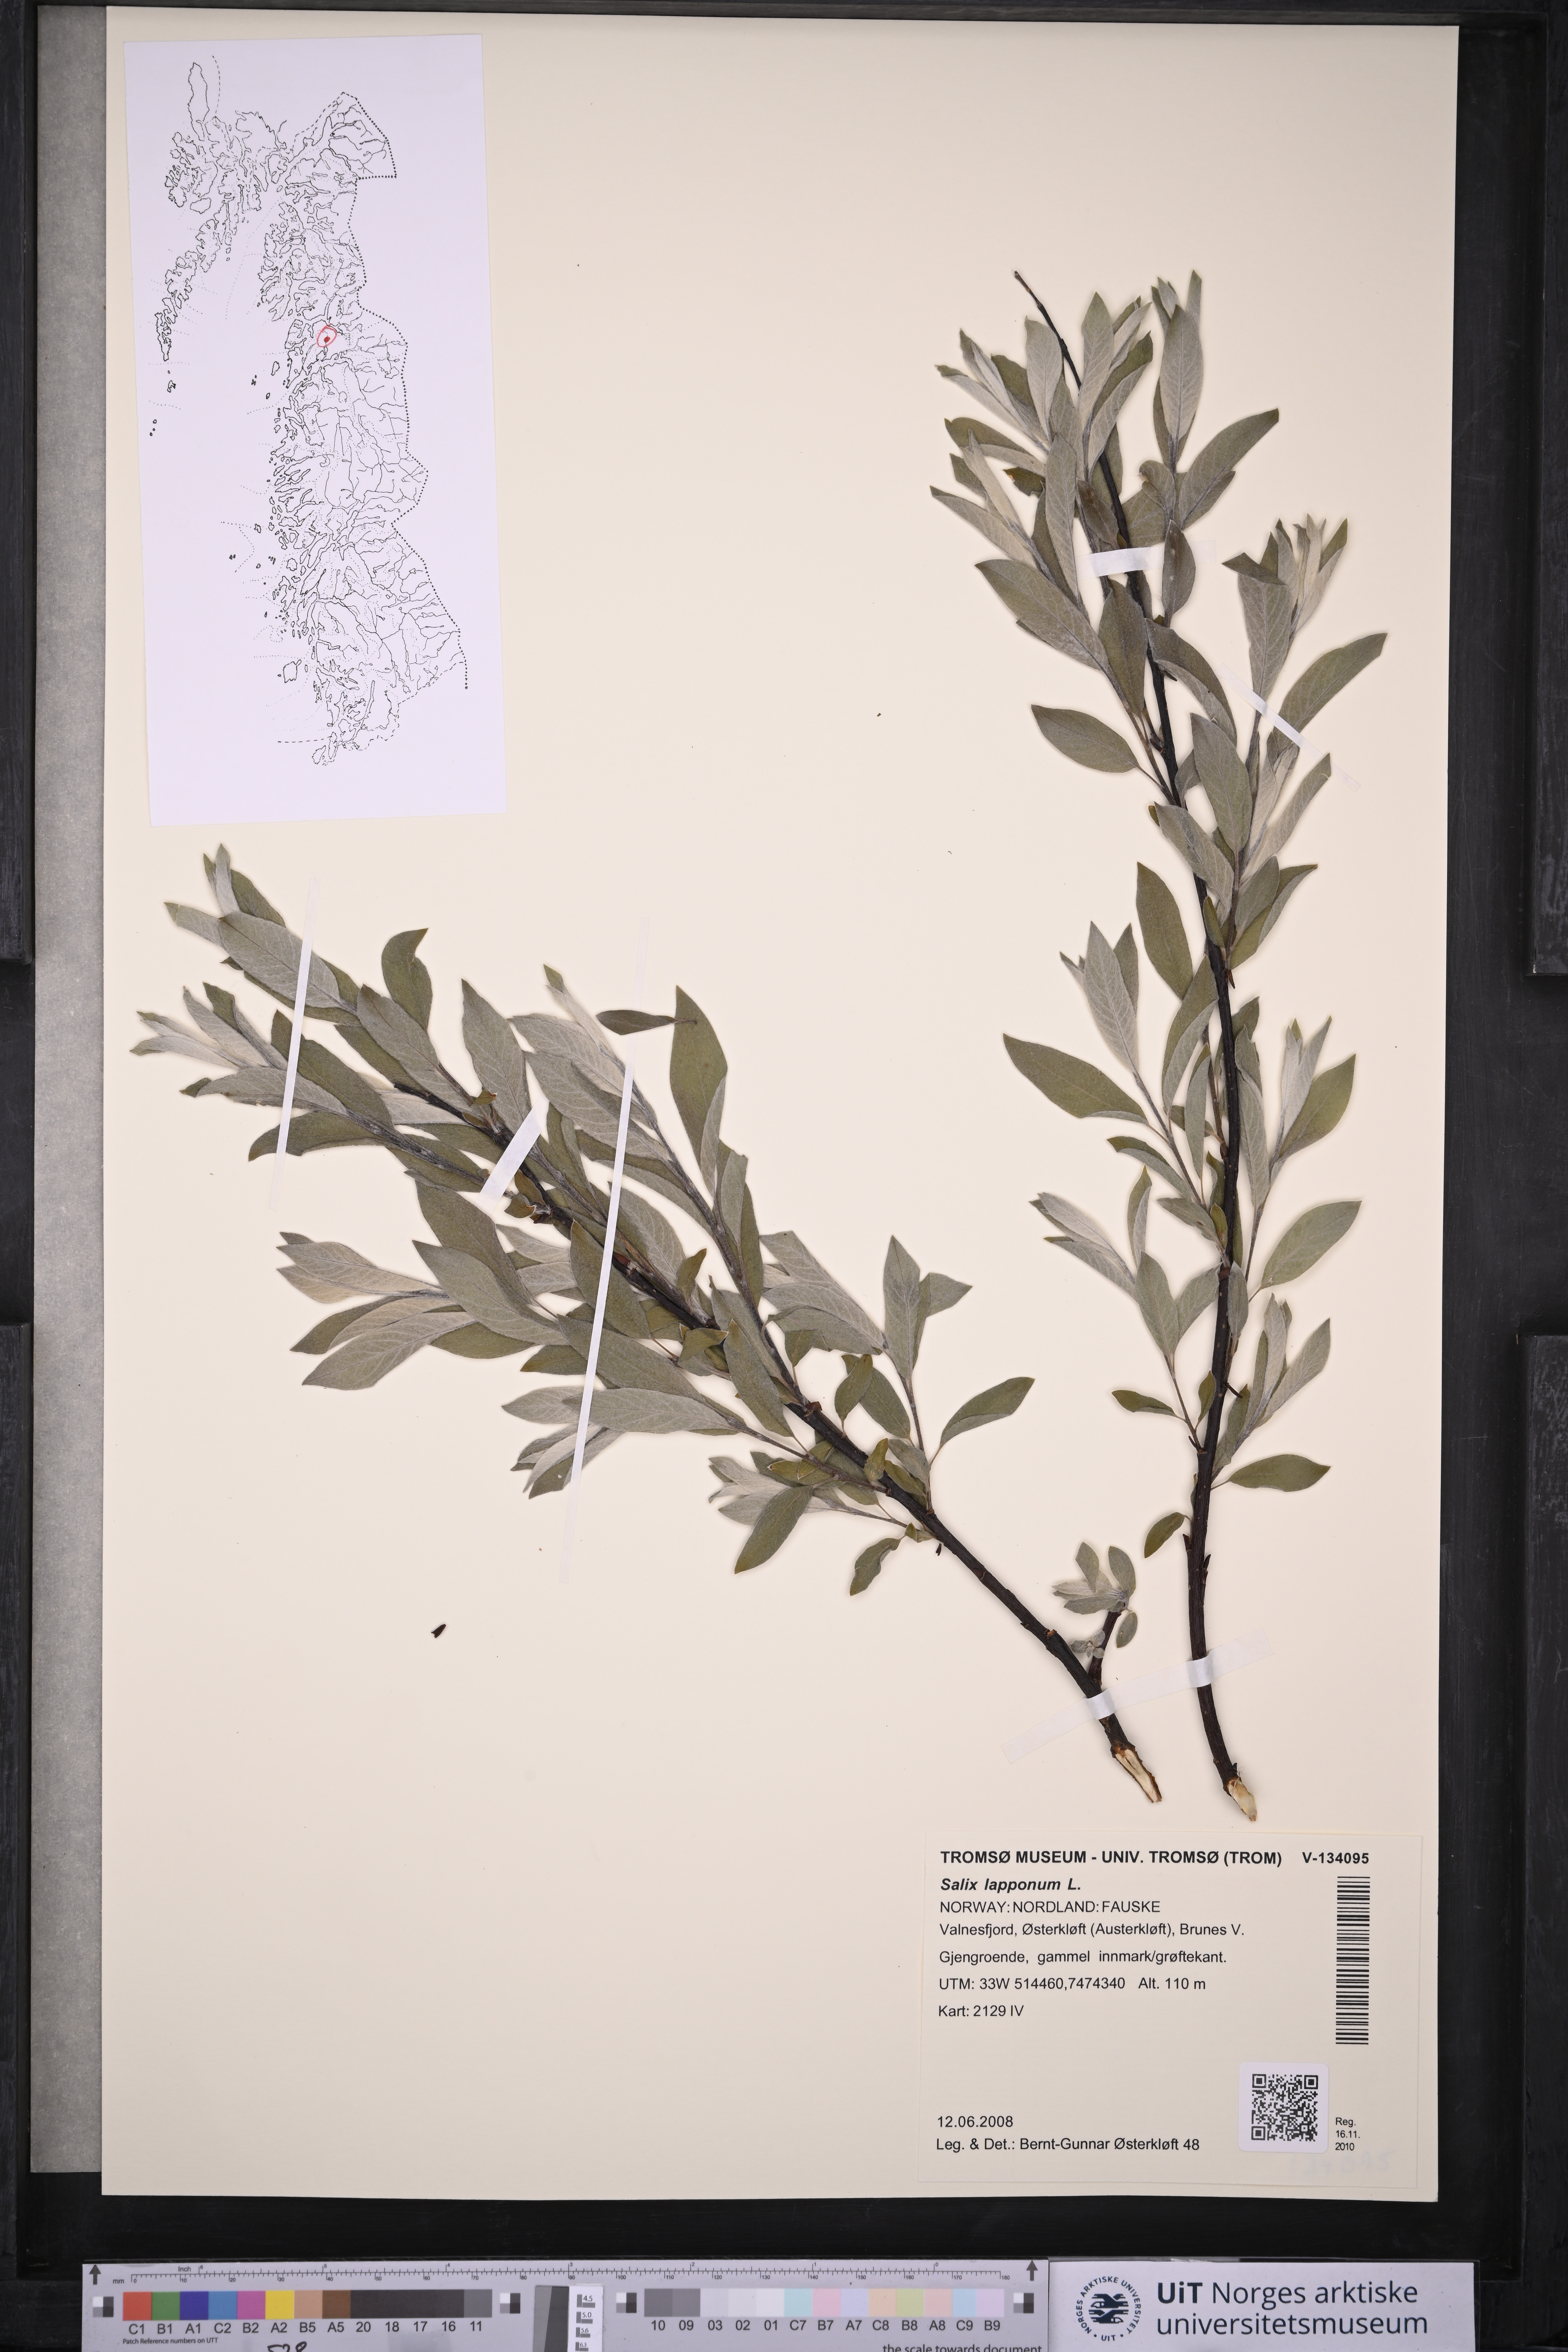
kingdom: Plantae
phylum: Tracheophyta
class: Magnoliopsida
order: Malpighiales
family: Salicaceae
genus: Salix
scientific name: Salix lapponum
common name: Downy willow
